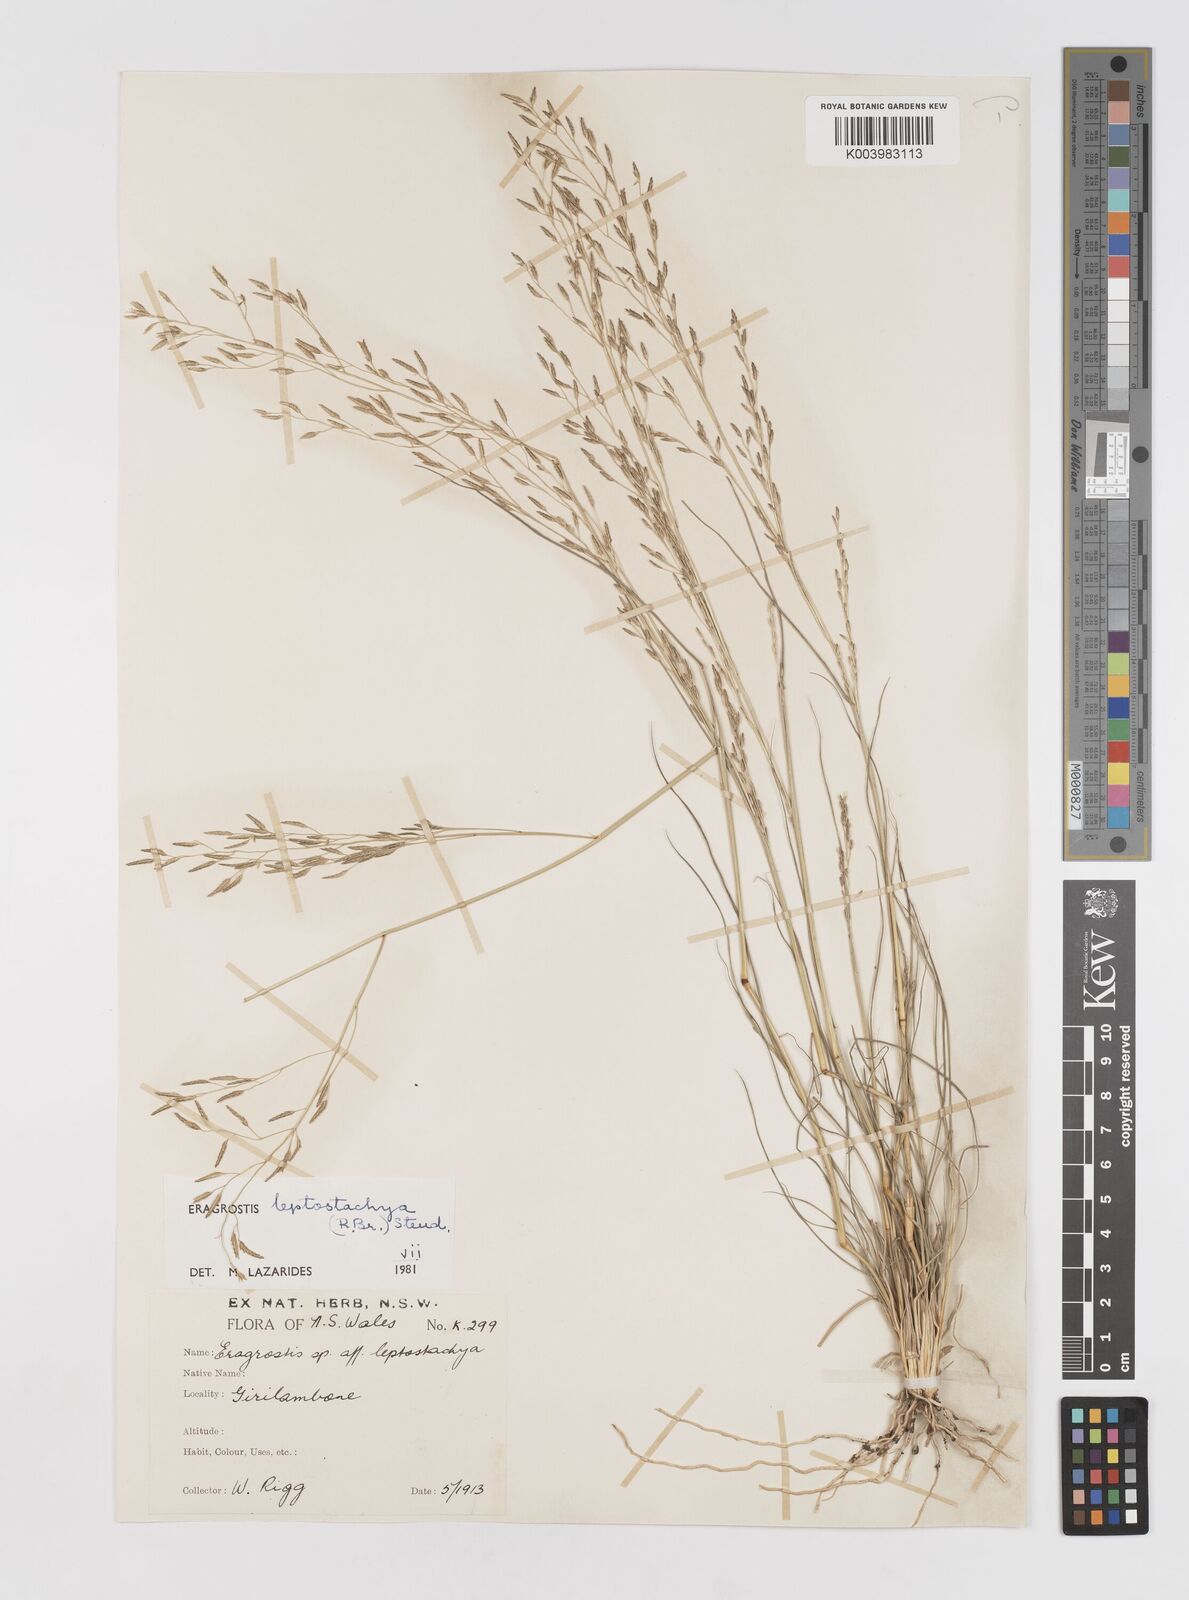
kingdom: Plantae
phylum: Tracheophyta
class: Liliopsida
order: Poales
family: Poaceae
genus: Eragrostis
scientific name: Eragrostis leptostachya
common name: Australian lovegrass
